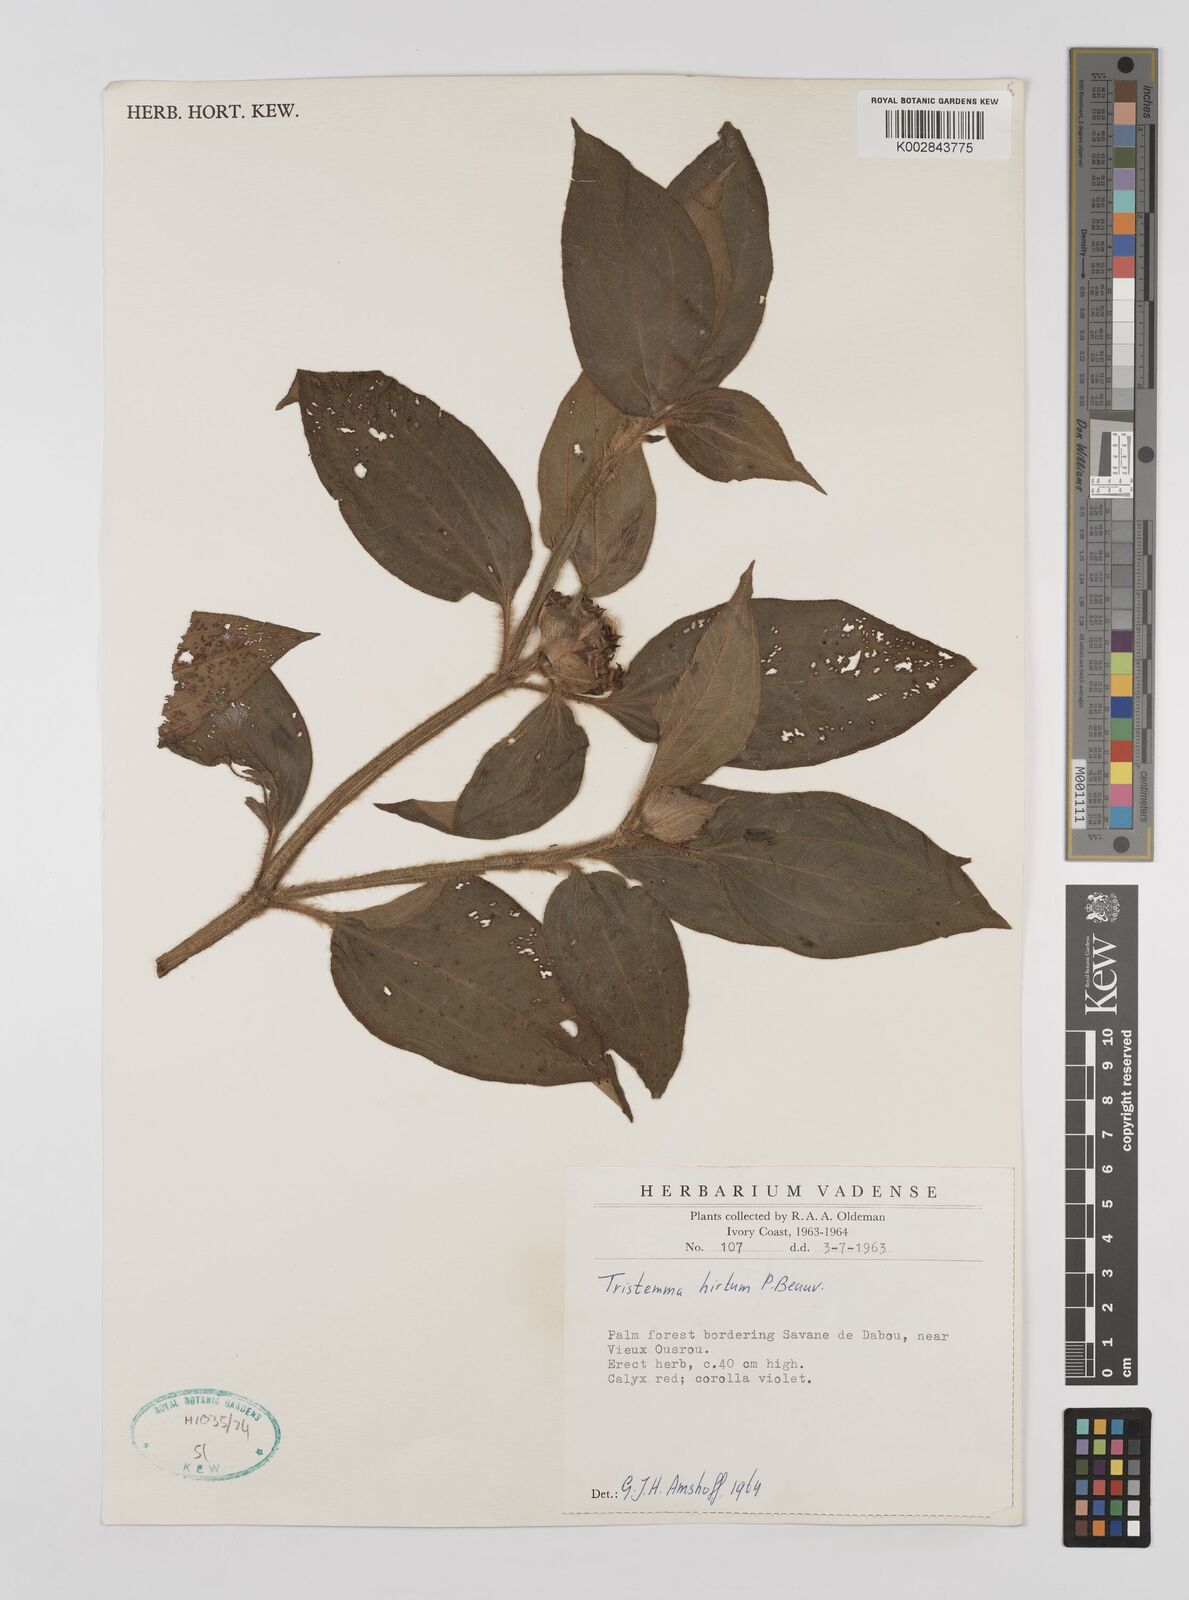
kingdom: Plantae
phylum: Tracheophyta
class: Magnoliopsida
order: Myrtales
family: Melastomataceae
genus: Tristemma
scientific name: Tristemma hirtum
